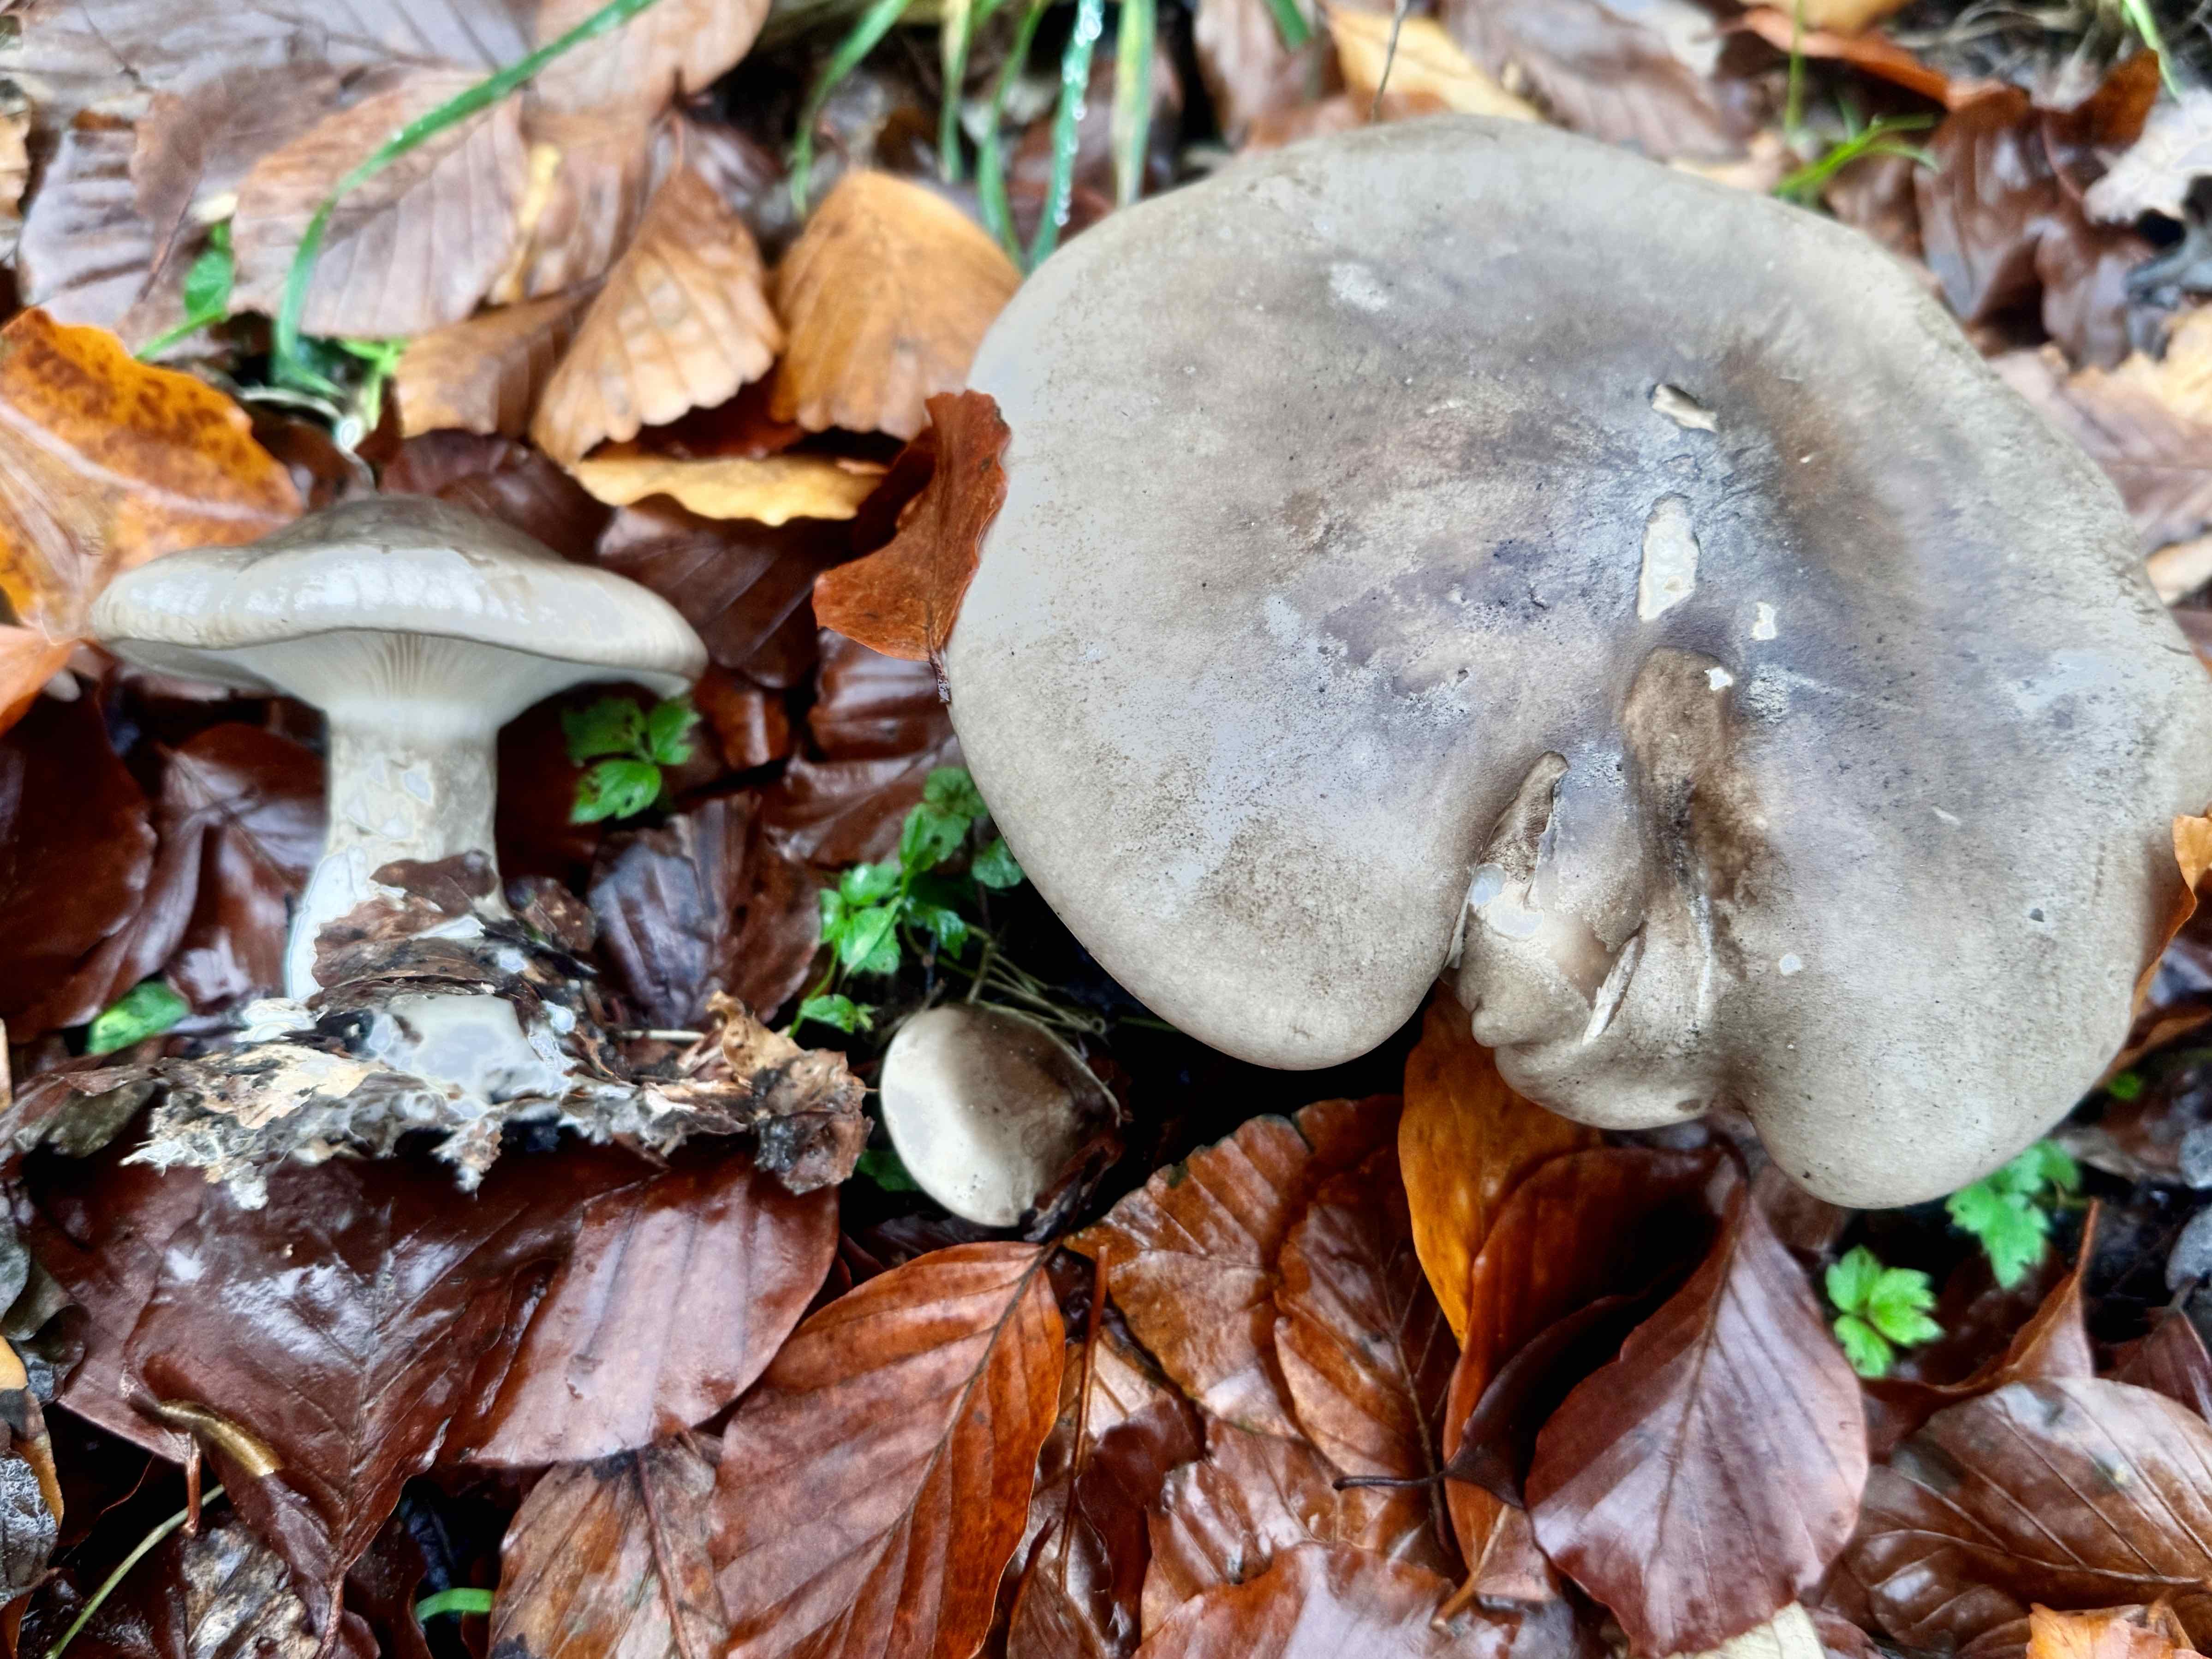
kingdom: Fungi
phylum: Basidiomycota
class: Agaricomycetes
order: Agaricales
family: Tricholomataceae
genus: Clitocybe
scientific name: Clitocybe nebularis
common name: tåge-tragthat
